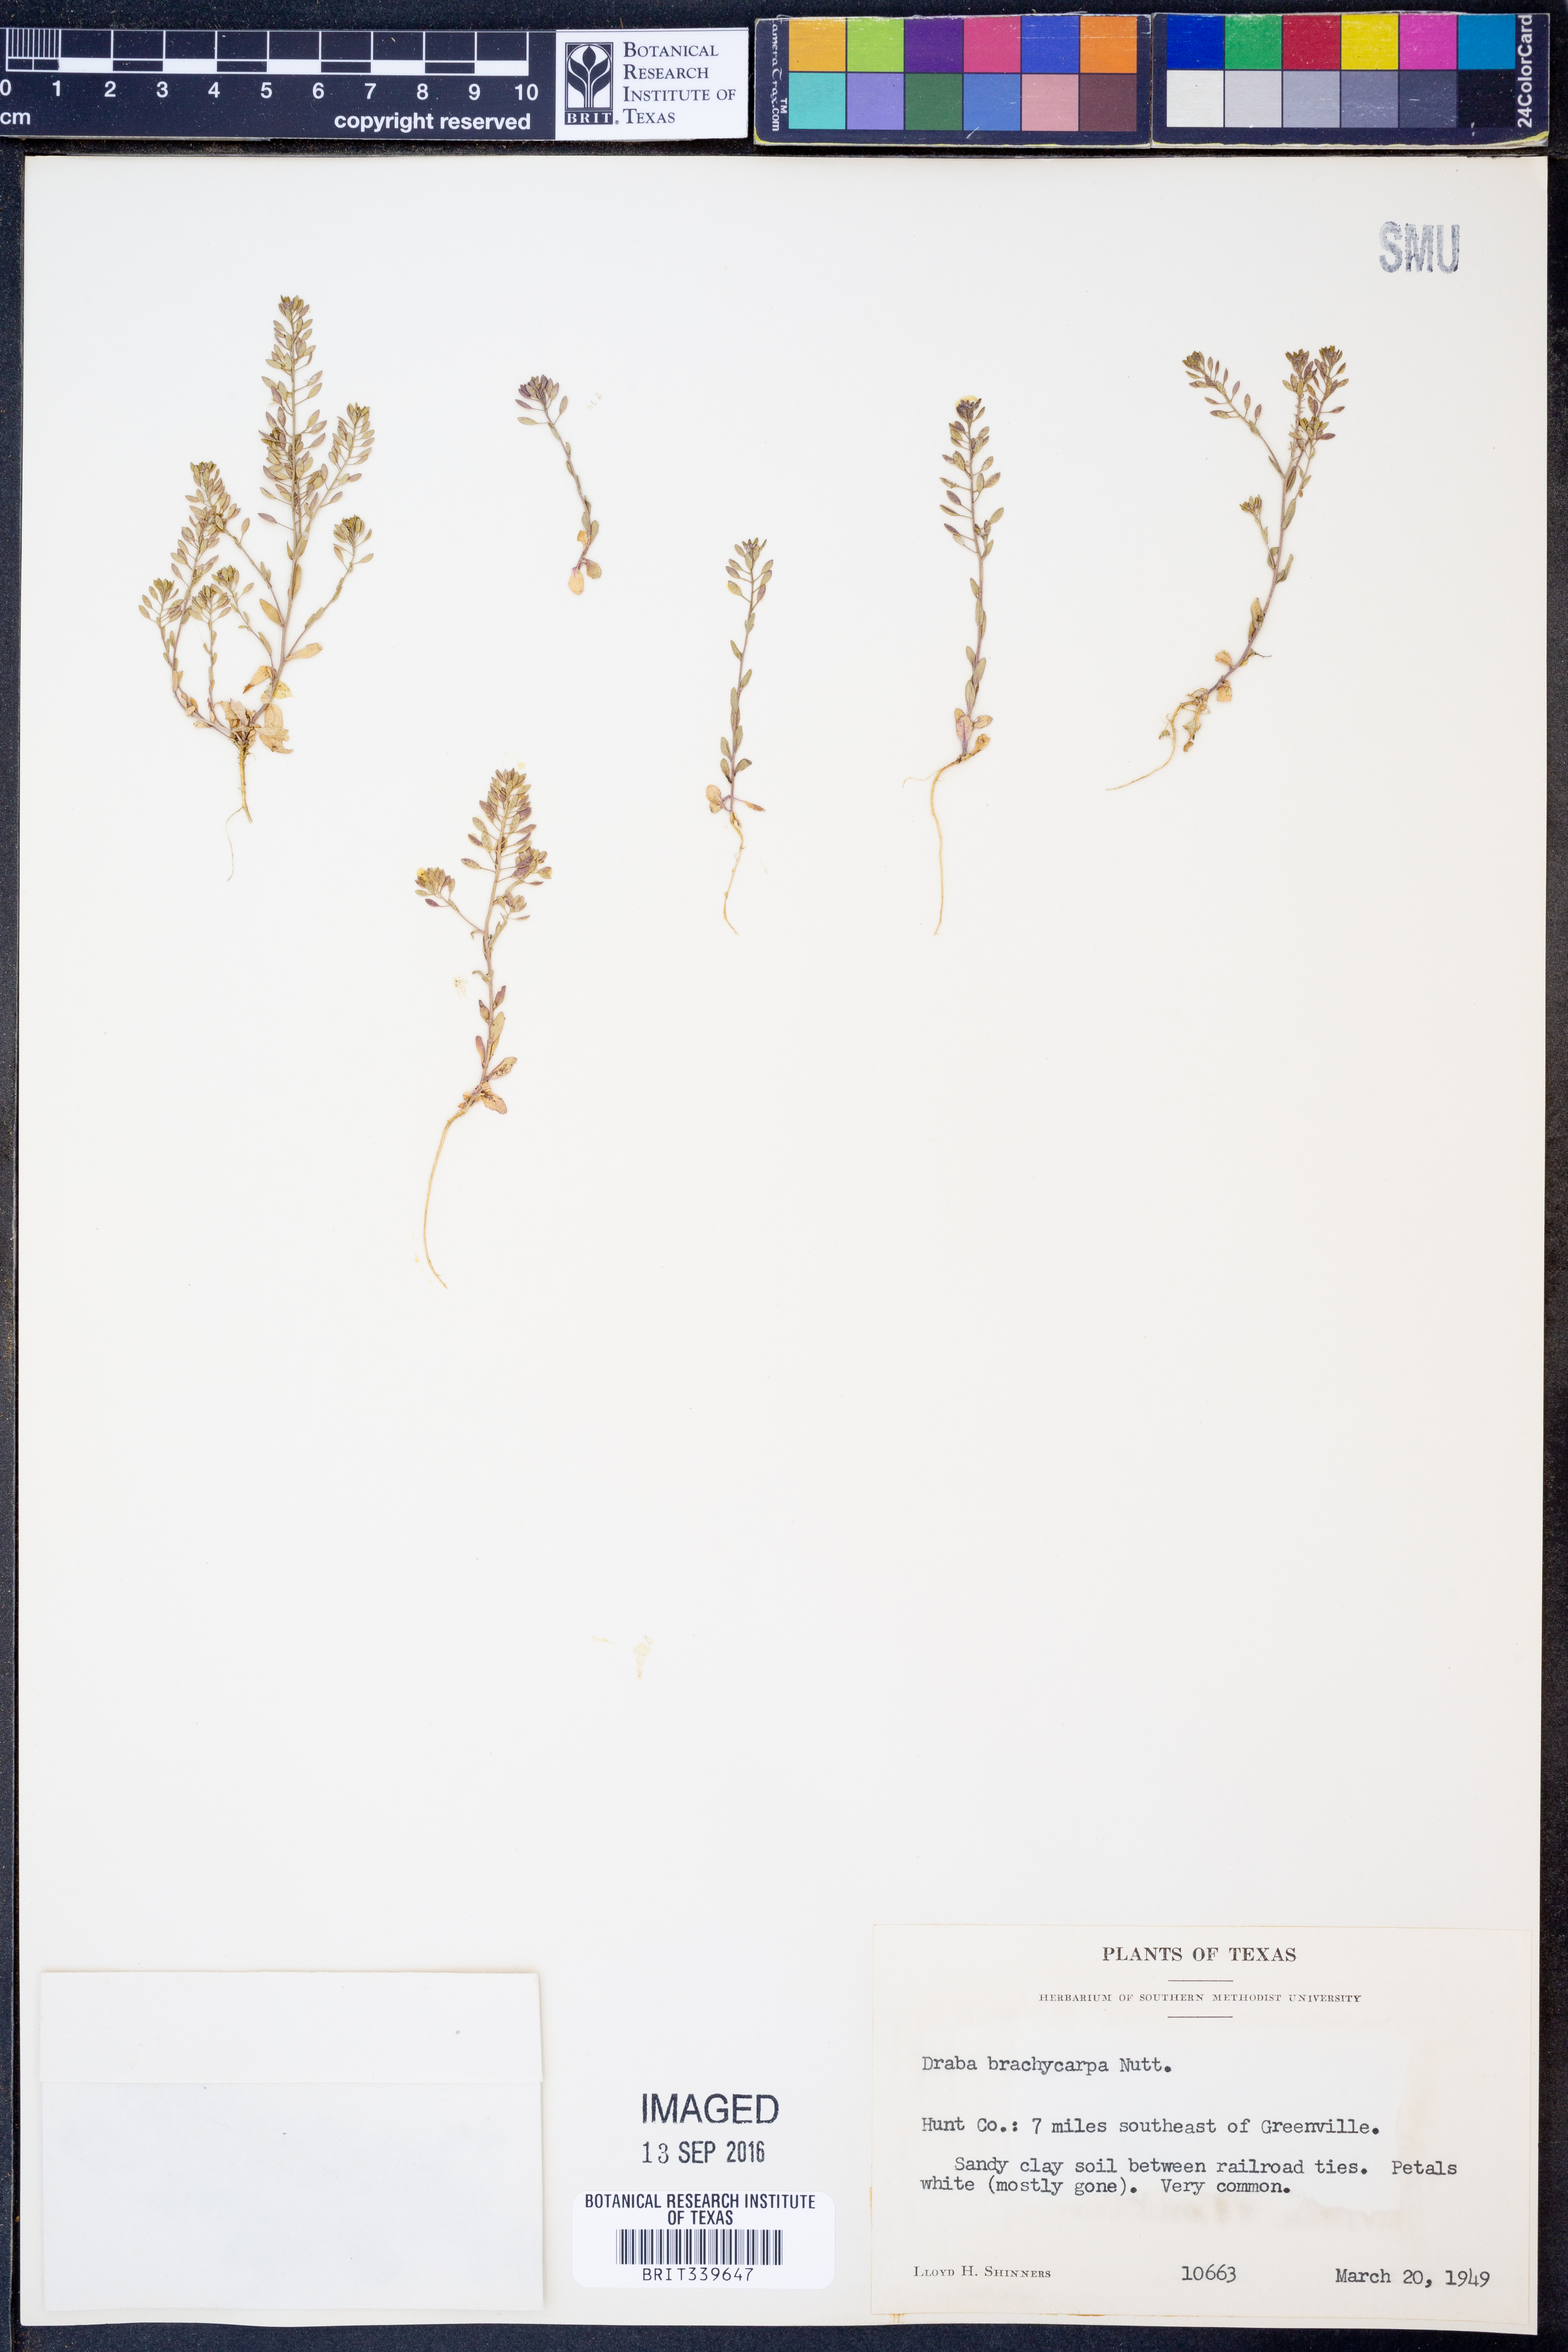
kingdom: Plantae
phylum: Tracheophyta
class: Magnoliopsida
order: Brassicales
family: Brassicaceae
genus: Abdra
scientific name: Abdra brachycarpa
